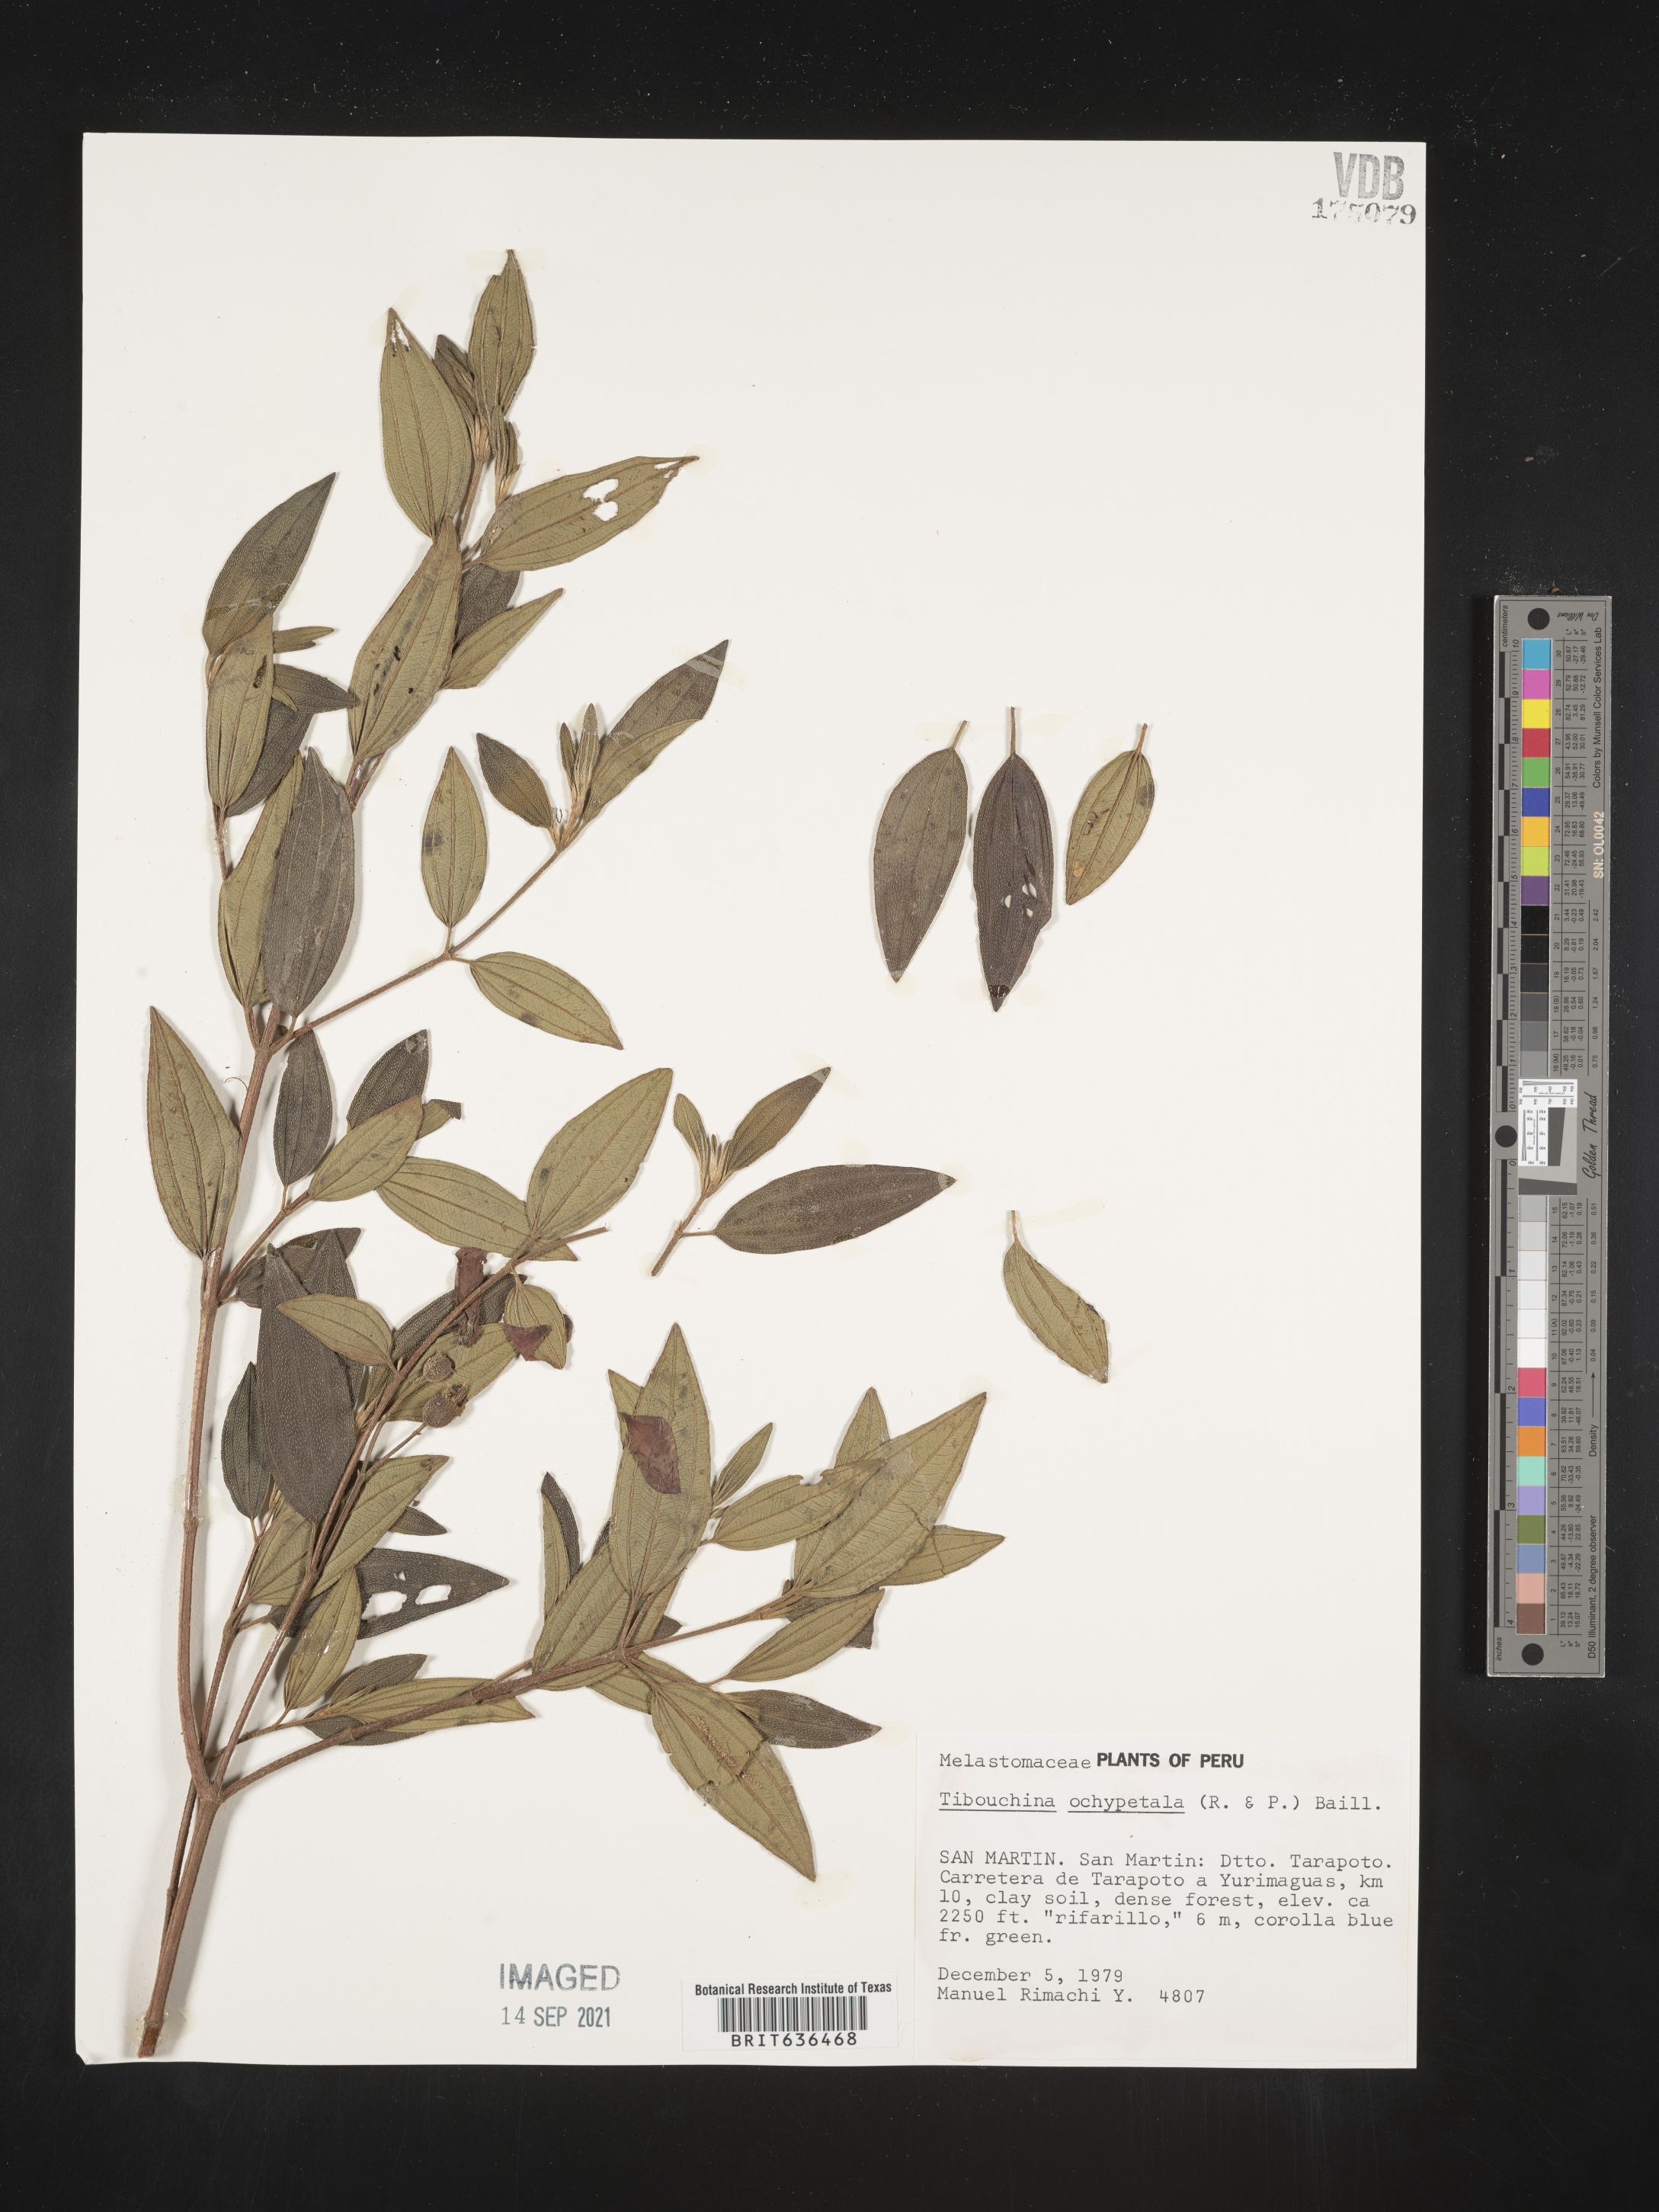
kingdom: Plantae
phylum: Tracheophyta
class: Magnoliopsida
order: Myrtales
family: Melastomataceae
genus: Tibouchina
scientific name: Tibouchina
